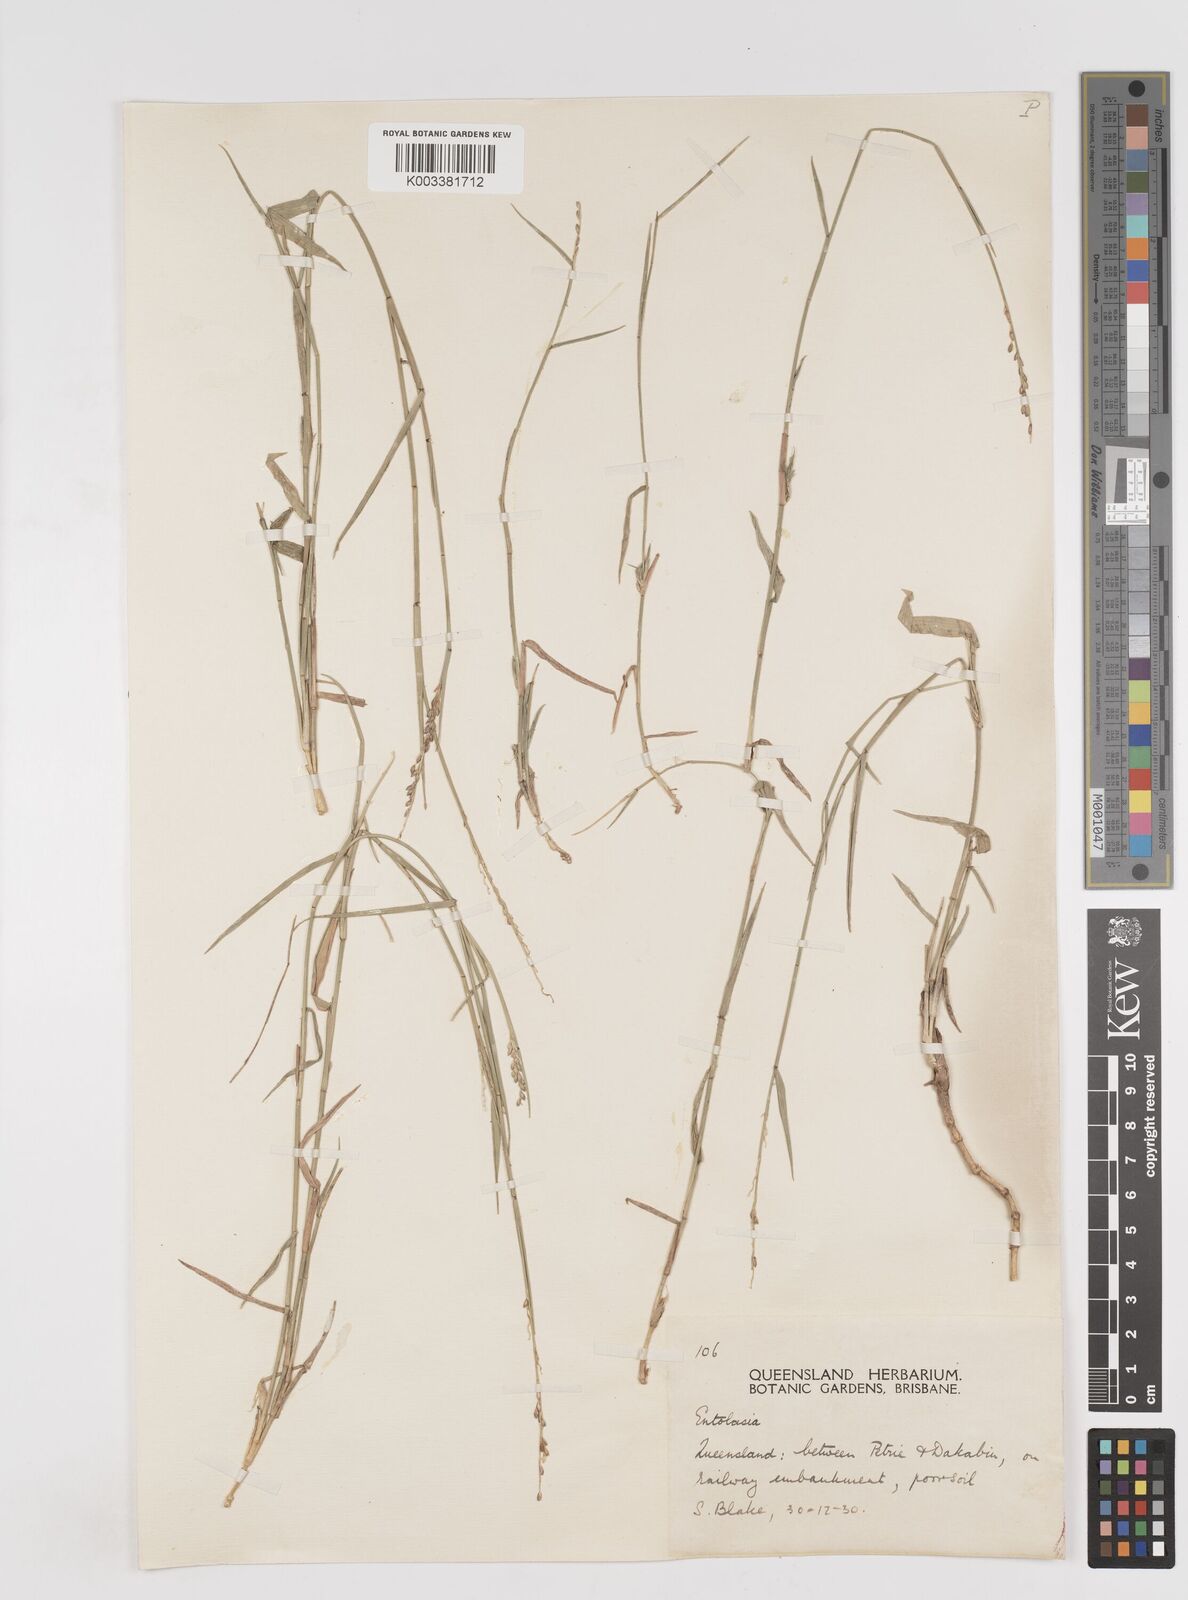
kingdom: Plantae
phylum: Tracheophyta
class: Liliopsida
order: Poales
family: Poaceae
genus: Entolasia
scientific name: Entolasia stricta
